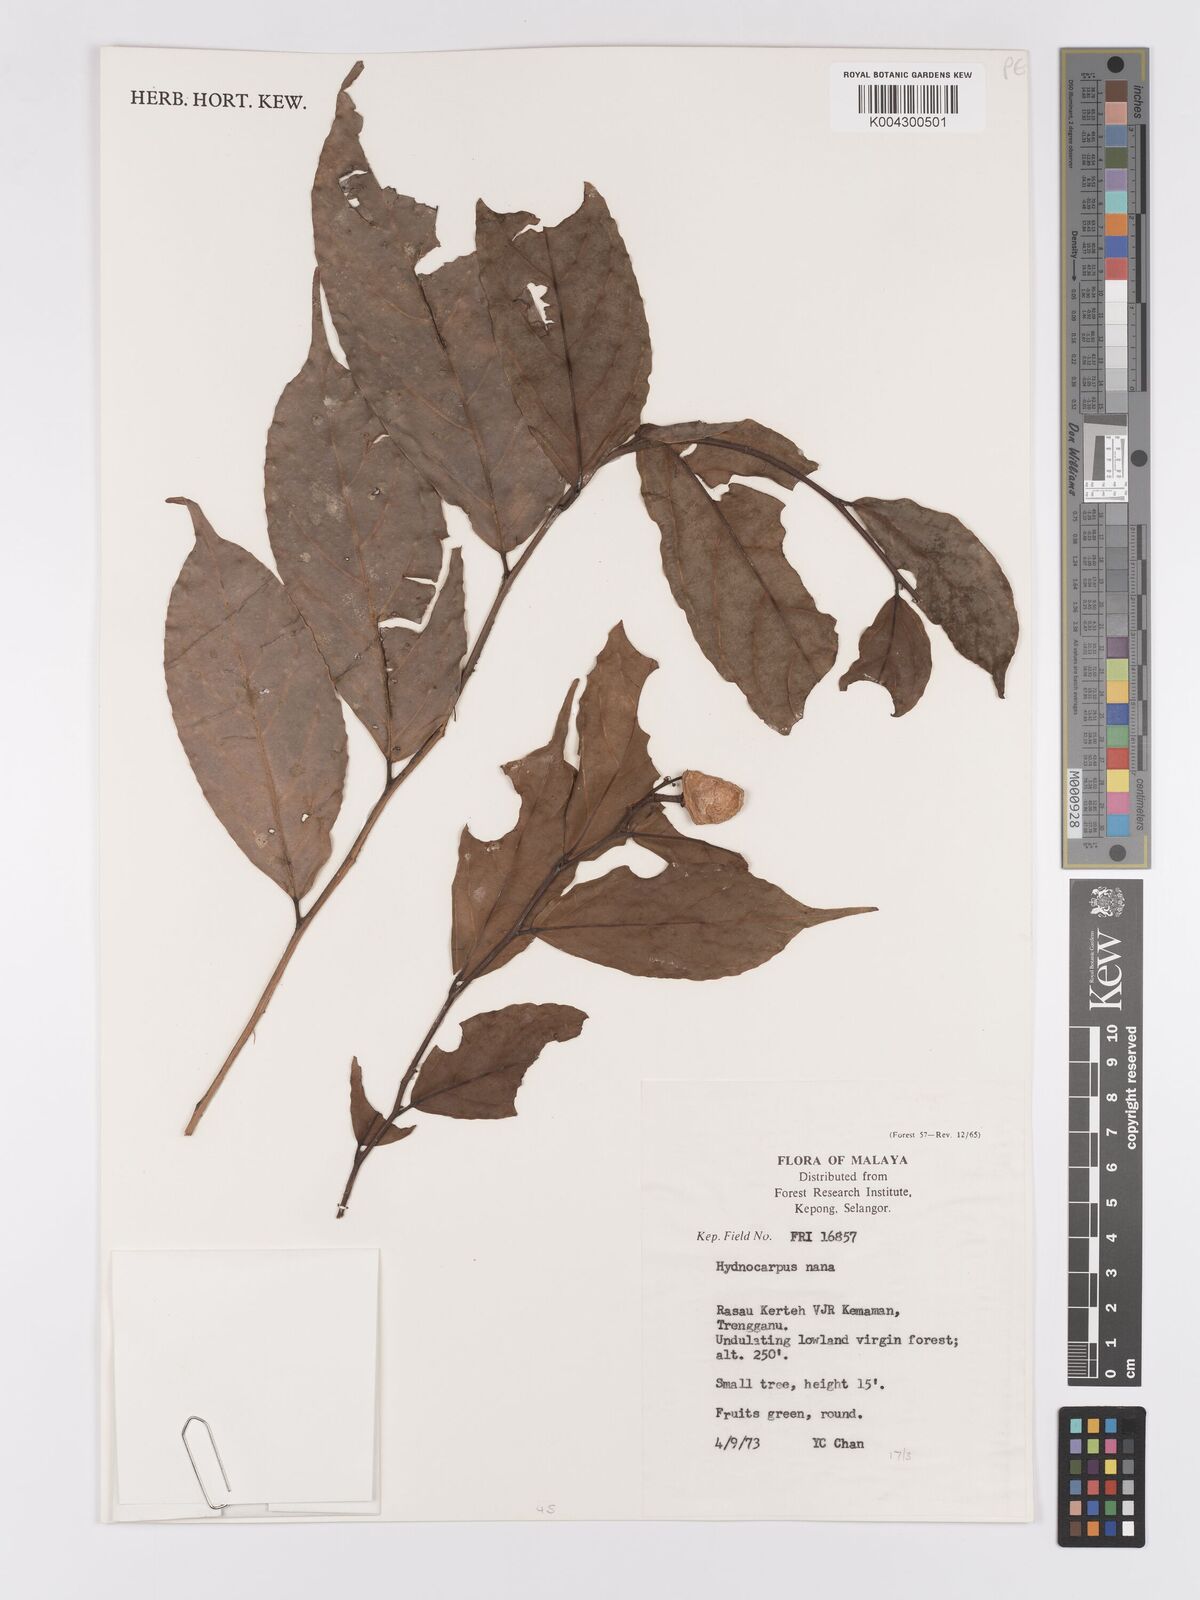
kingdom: Plantae
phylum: Tracheophyta
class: Magnoliopsida
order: Malpighiales
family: Achariaceae
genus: Hydnocarpus
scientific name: Hydnocarpus nanus
